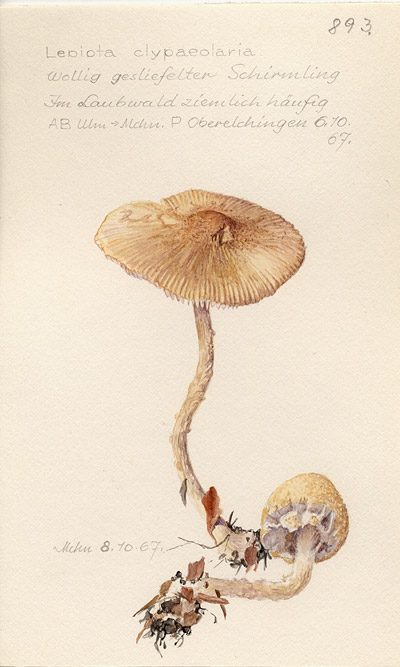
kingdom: Fungi
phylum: Basidiomycota
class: Agaricomycetes
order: Agaricales
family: Agaricaceae
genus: Lepiota
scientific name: Lepiota clypeolaria
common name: Shield dapperling
